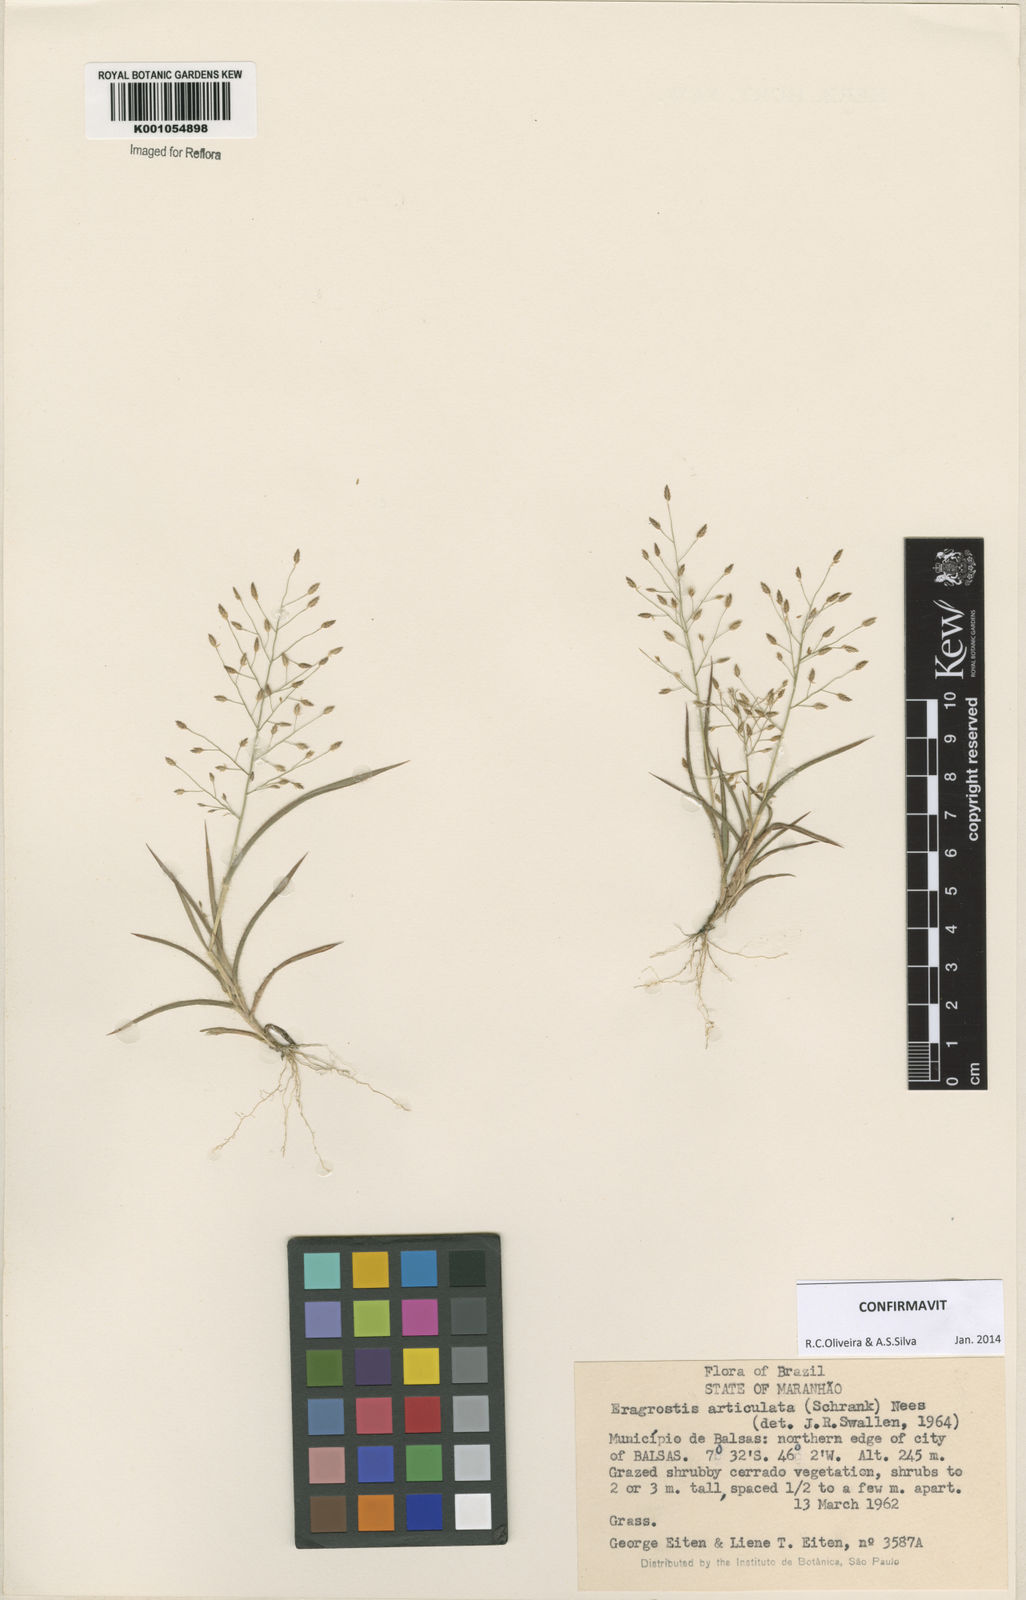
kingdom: Plantae
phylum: Tracheophyta
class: Liliopsida
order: Poales
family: Poaceae
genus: Eragrostis
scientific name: Eragrostis articulata
